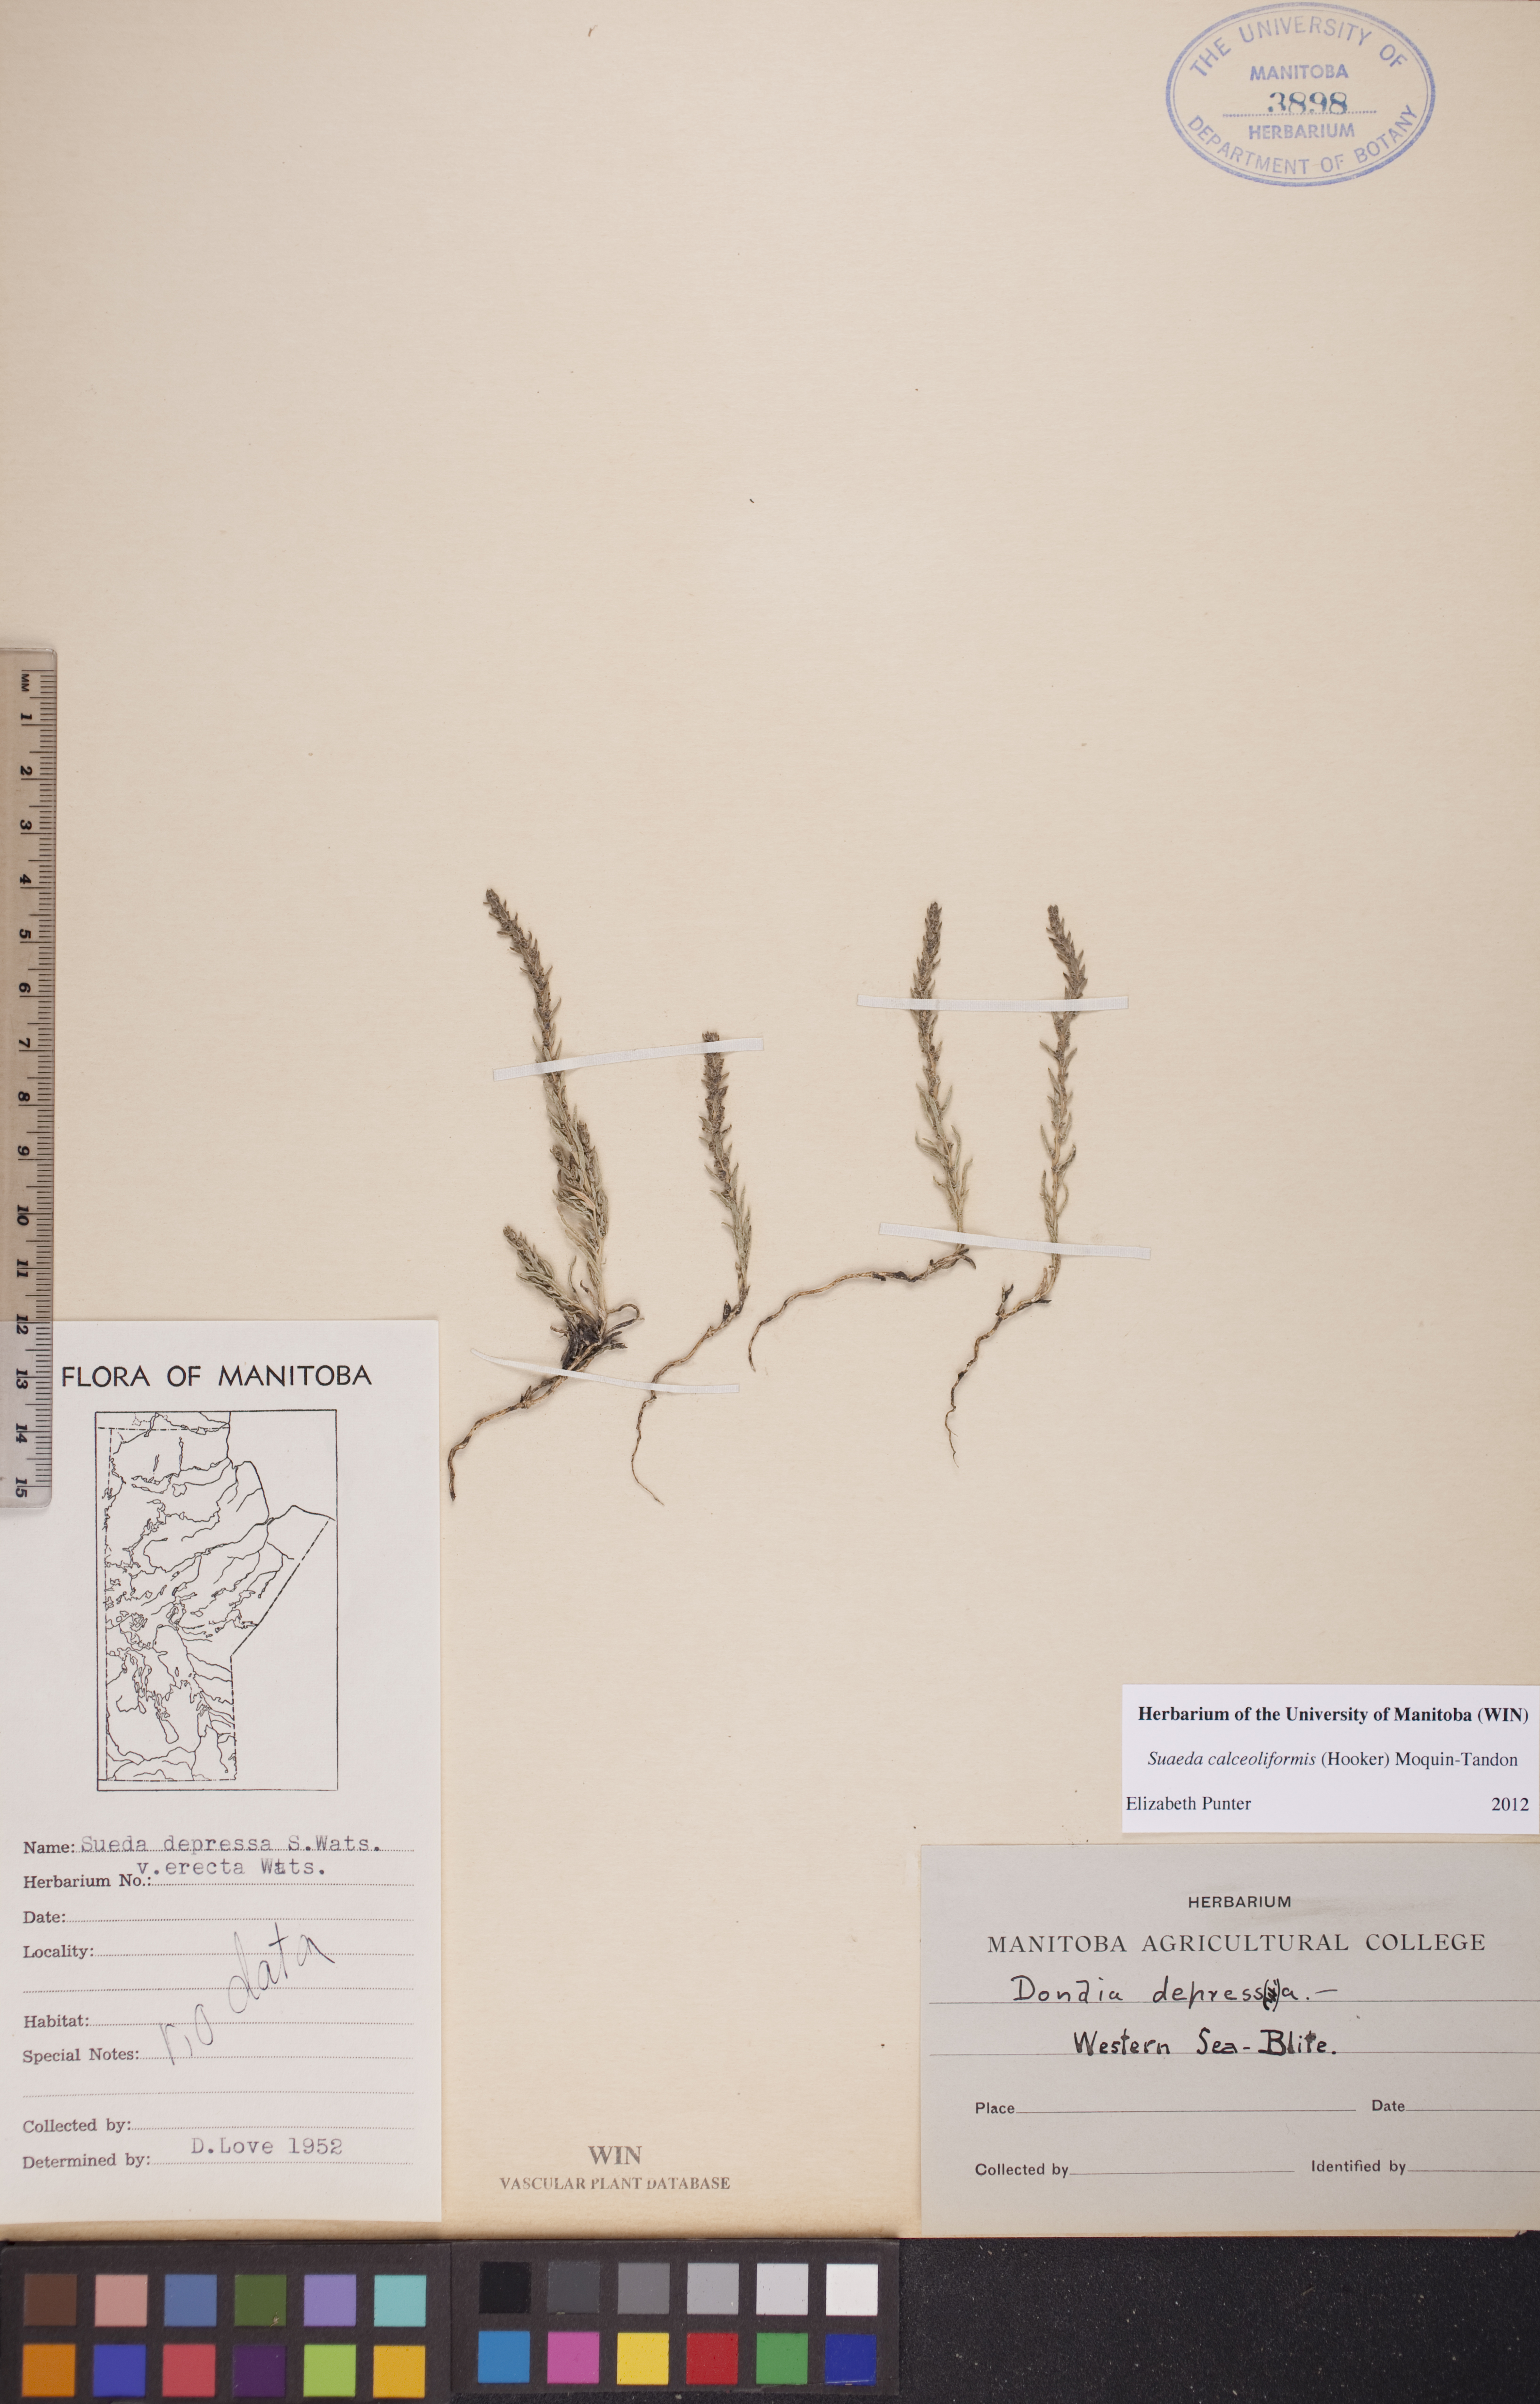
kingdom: Plantae
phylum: Tracheophyta
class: Magnoliopsida
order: Caryophyllales
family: Amaranthaceae
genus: Suaeda
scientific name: Suaeda calceoliformis
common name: Pursh's seepweed
